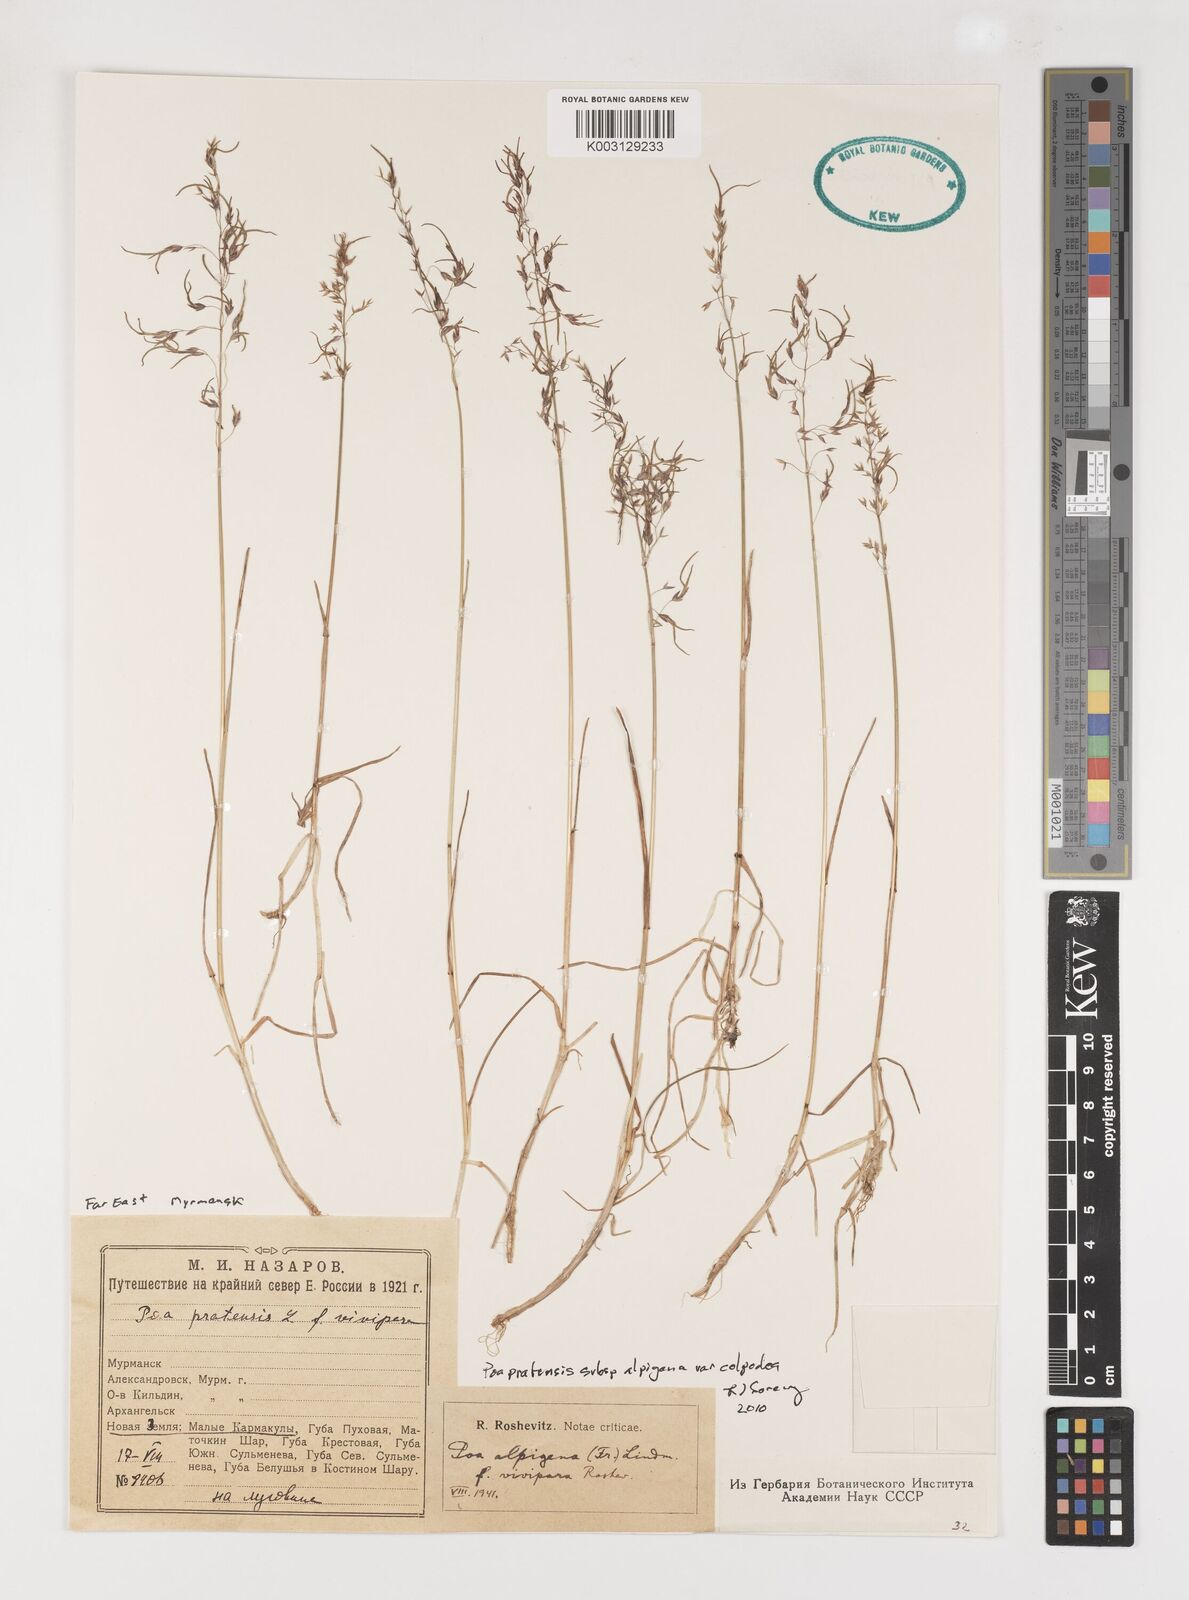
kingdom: Plantae
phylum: Tracheophyta
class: Liliopsida
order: Poales
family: Poaceae
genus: Poa
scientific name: Poa lindebergii
